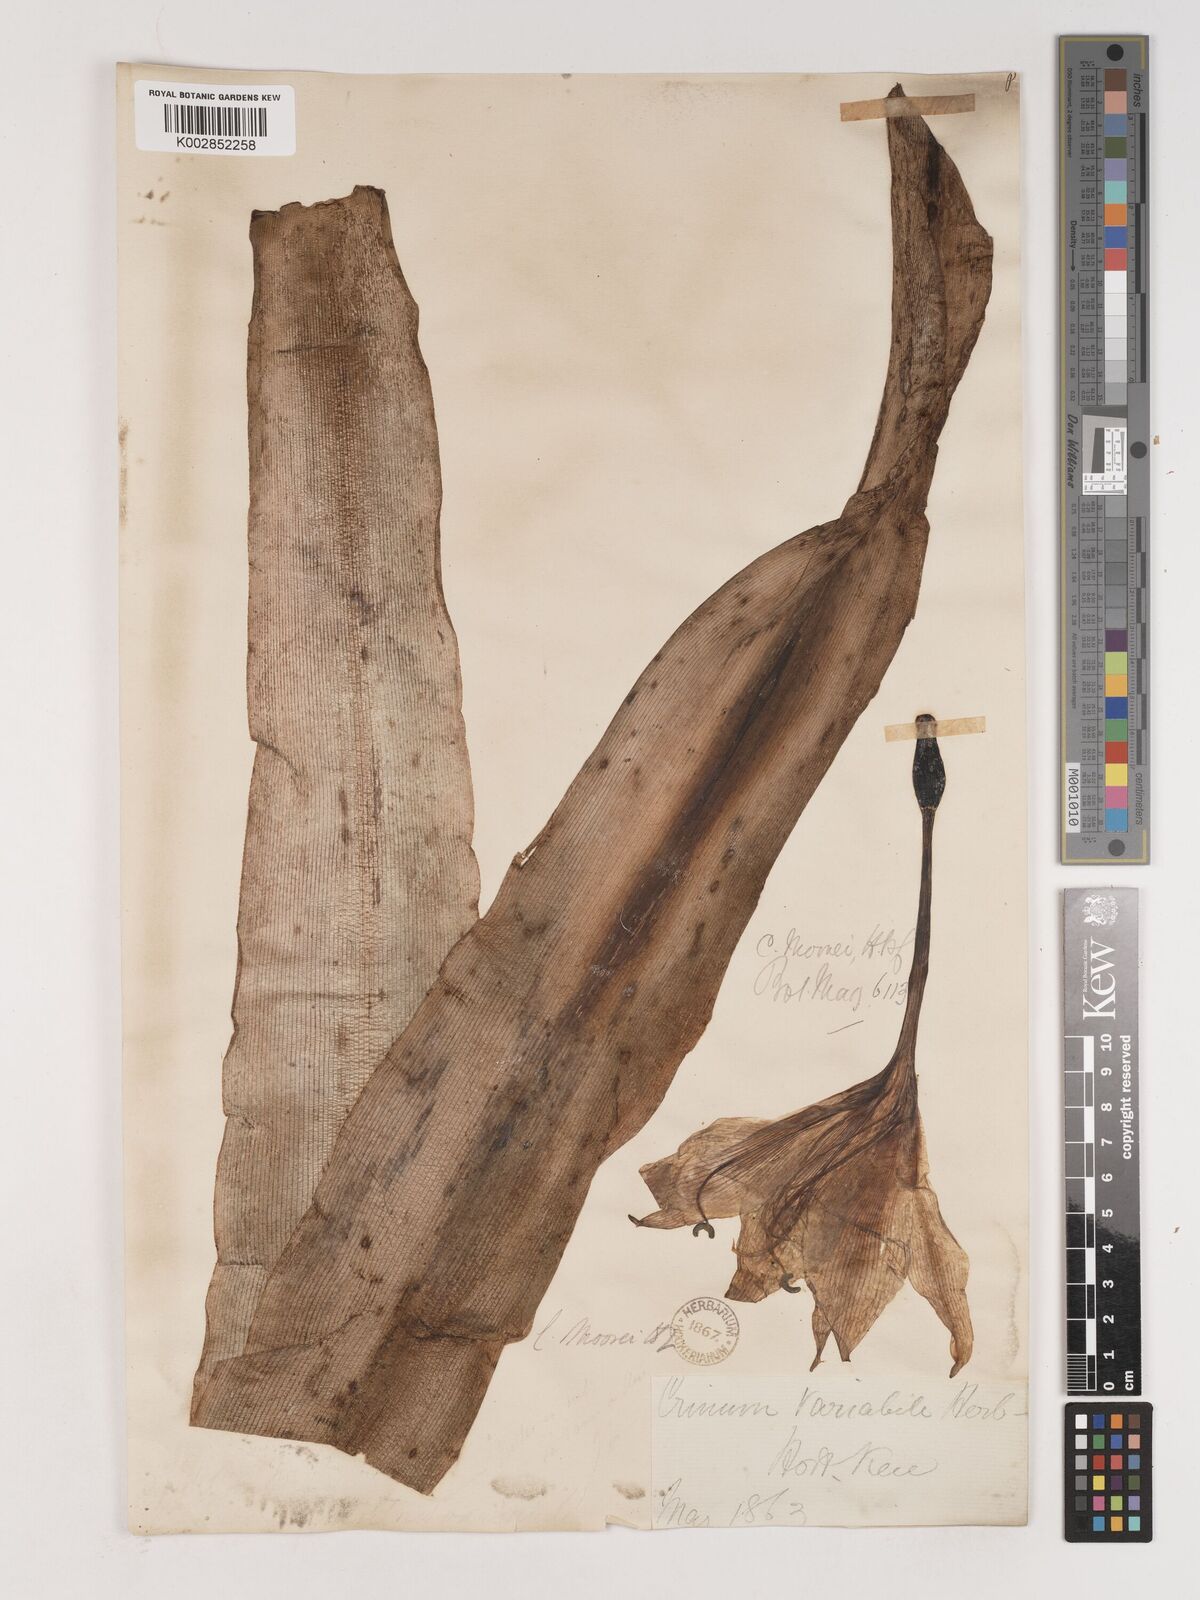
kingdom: Plantae
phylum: Tracheophyta
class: Liliopsida
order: Asparagales
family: Amaryllidaceae
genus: Crinum
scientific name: Crinum moorei
